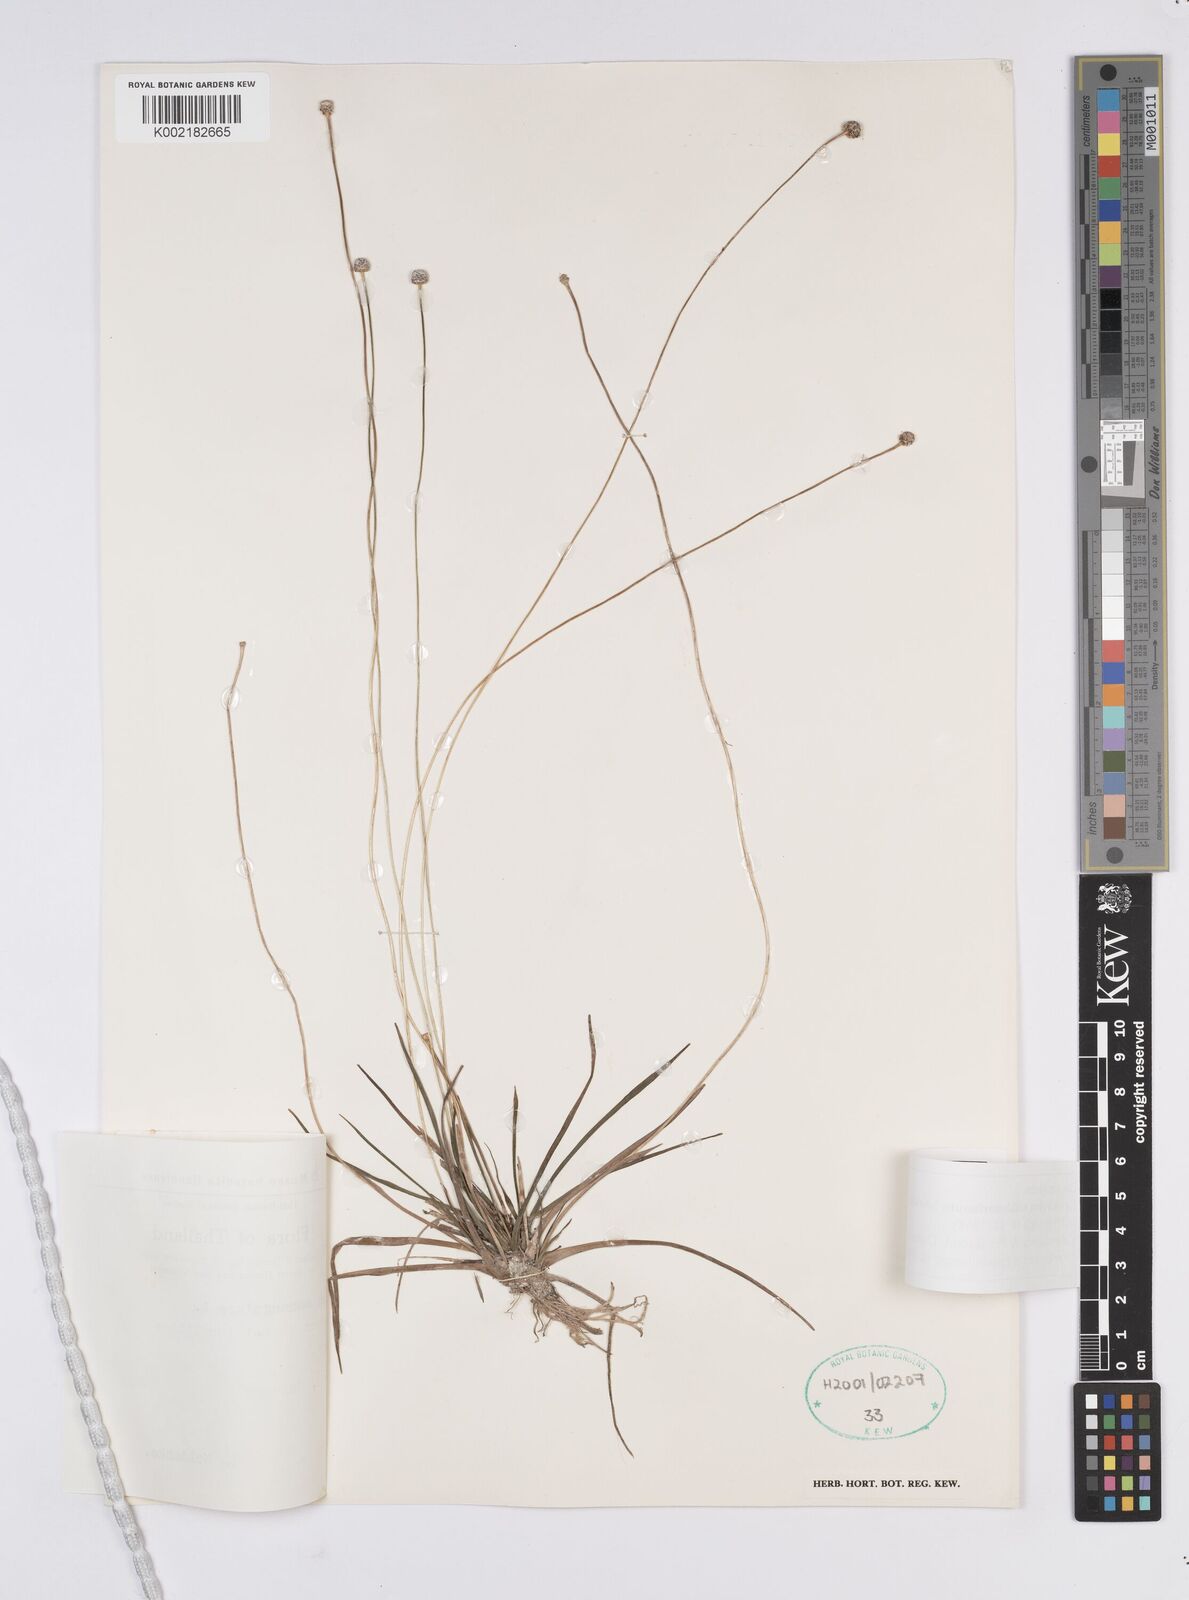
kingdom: Plantae
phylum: Tracheophyta
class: Liliopsida
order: Poales
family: Eriocaulaceae
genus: Eriocaulon
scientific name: Eriocaulon willdenovianum
